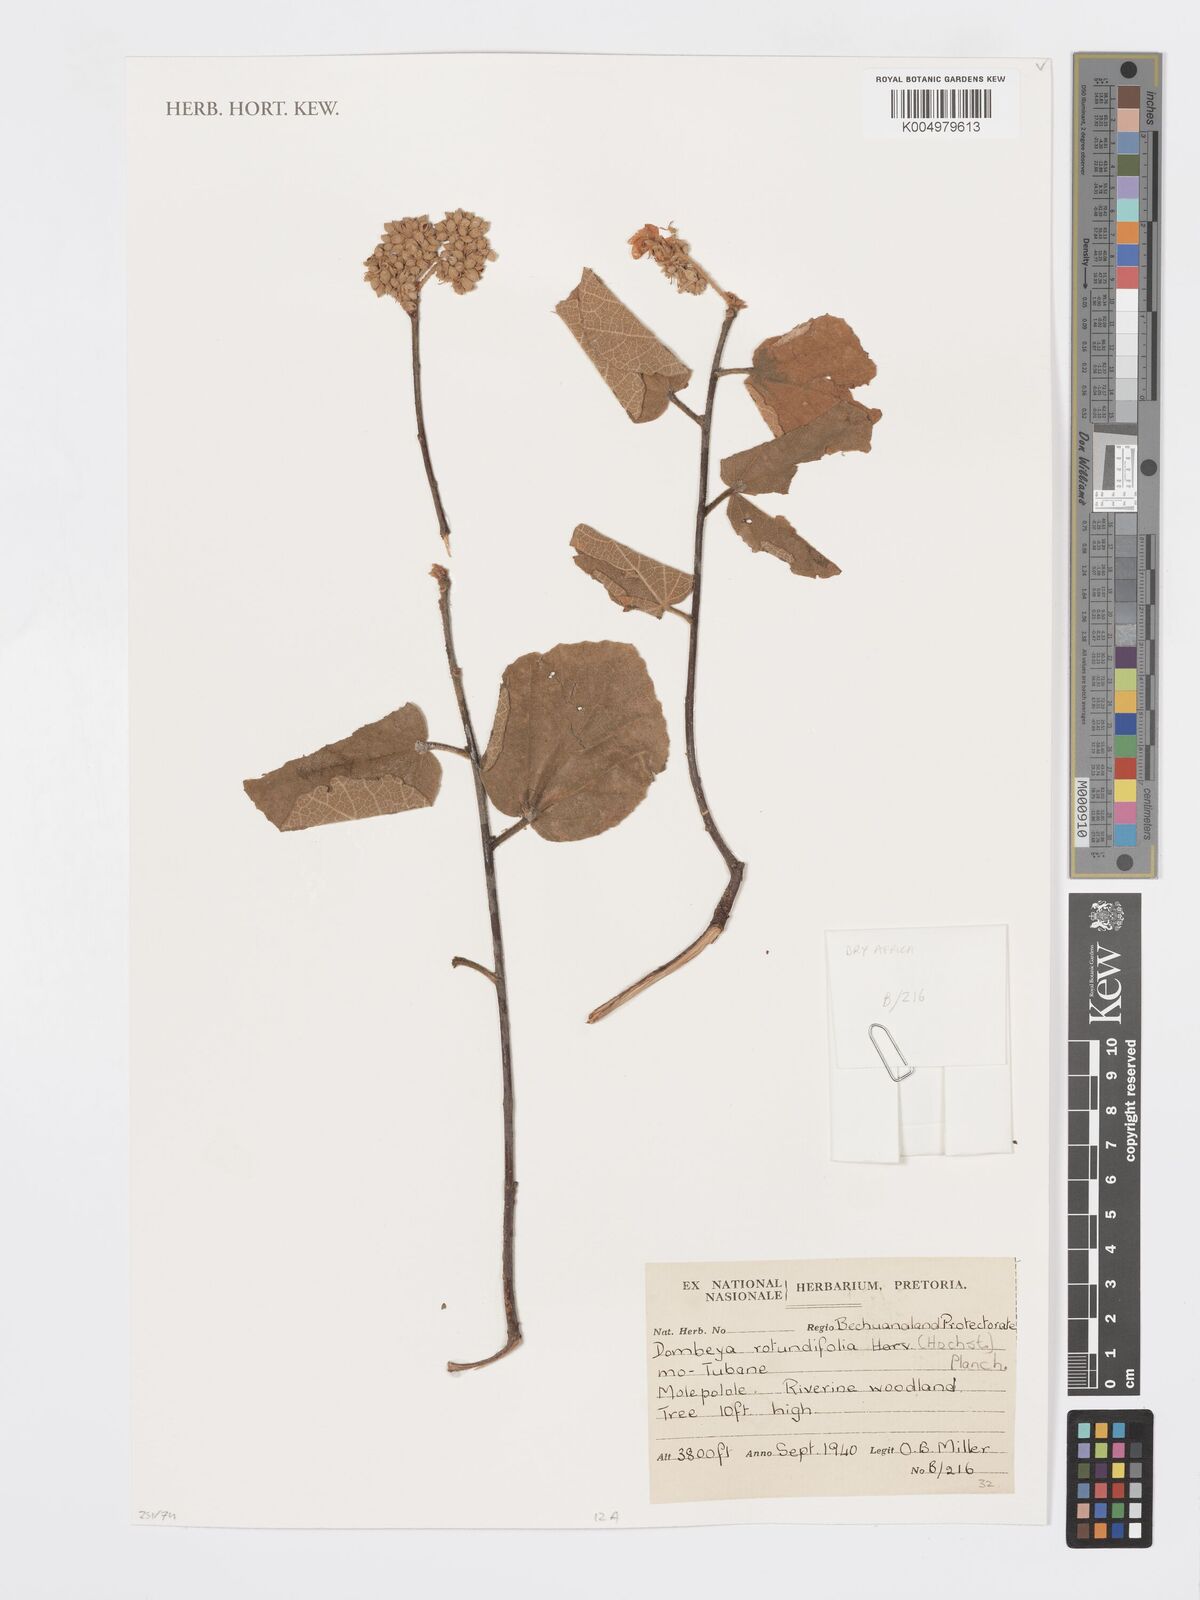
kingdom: Plantae
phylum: Tracheophyta
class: Magnoliopsida
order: Malvales
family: Malvaceae
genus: Dombeya
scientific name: Dombeya rotundifolia
